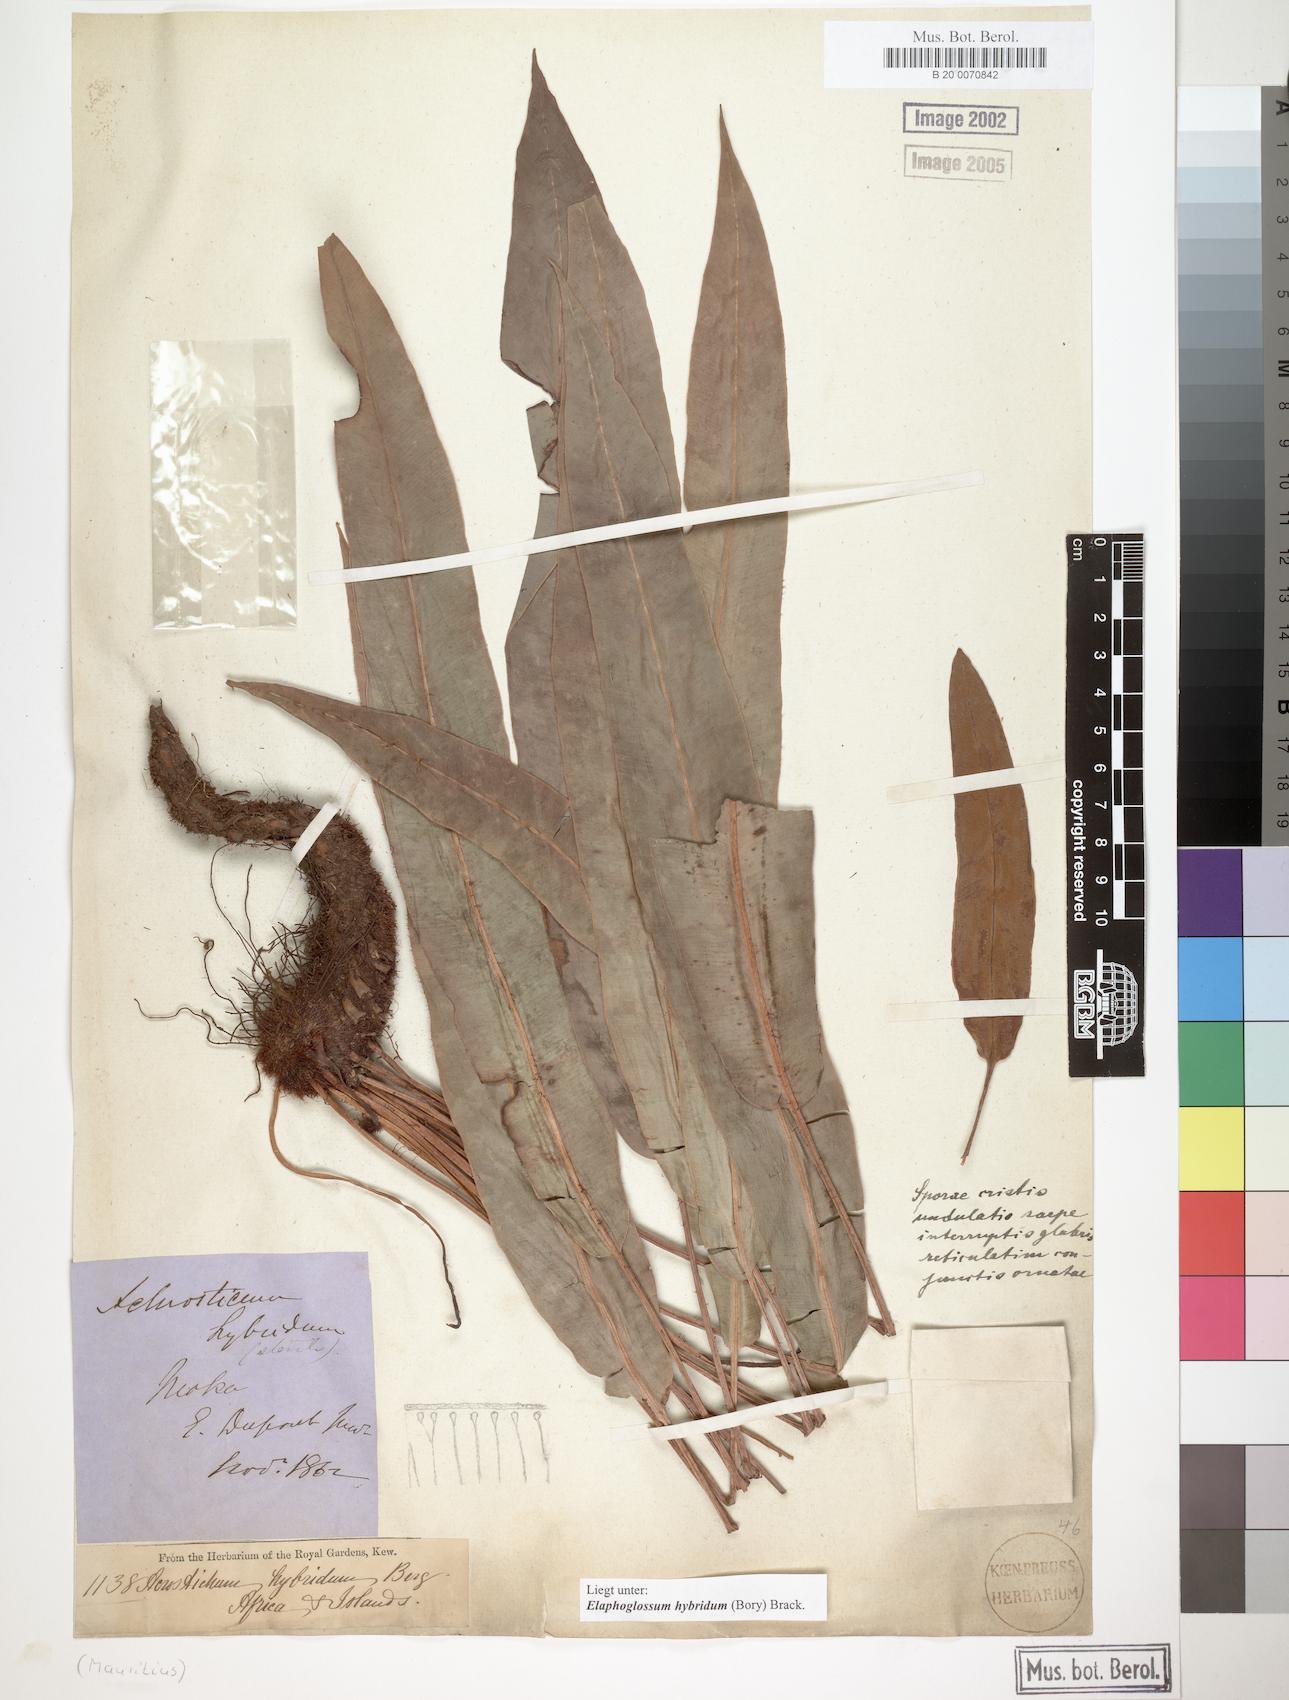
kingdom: Plantae
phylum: Tracheophyta
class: Polypodiopsida
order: Polypodiales
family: Dryopteridaceae
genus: Elaphoglossum
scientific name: Elaphoglossum hybridum
